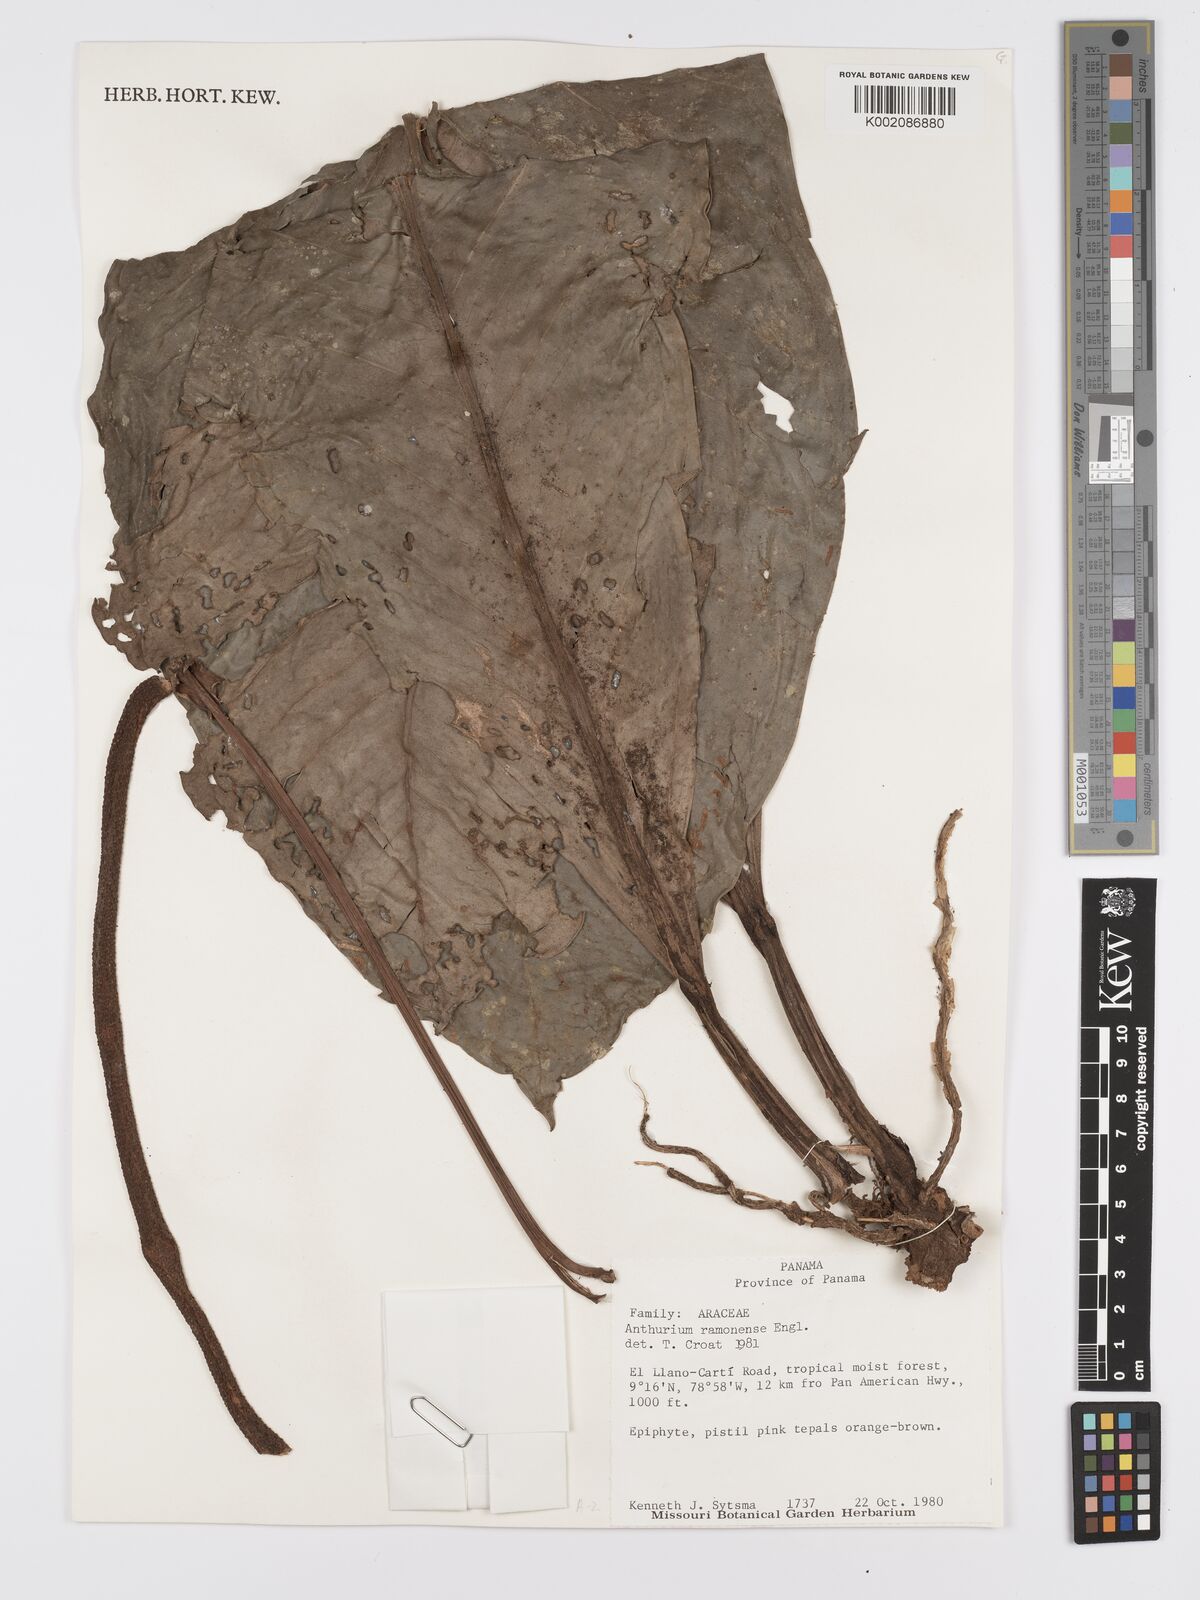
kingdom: Plantae
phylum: Tracheophyta
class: Liliopsida
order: Alismatales
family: Araceae
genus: Anthurium
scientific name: Anthurium ramonense
